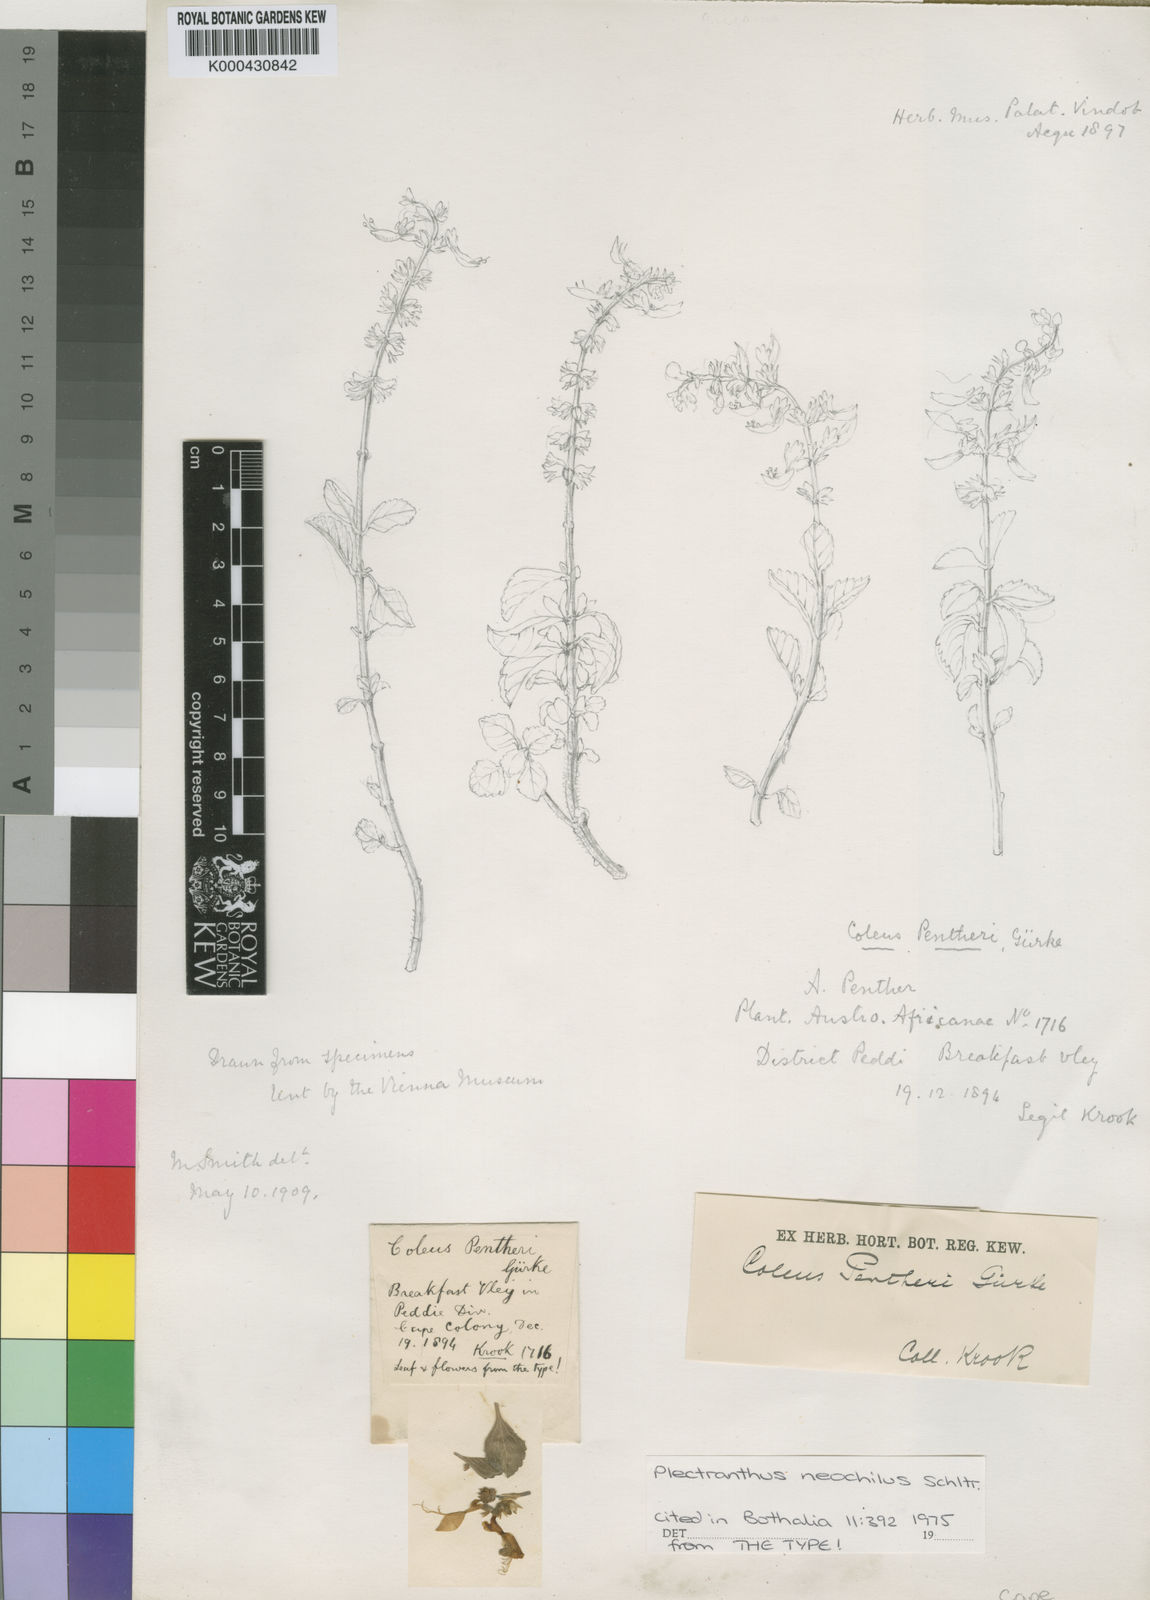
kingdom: Plantae
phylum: Tracheophyta
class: Magnoliopsida
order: Lamiales
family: Lamiaceae
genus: Plectranthus
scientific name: Plectranthus
